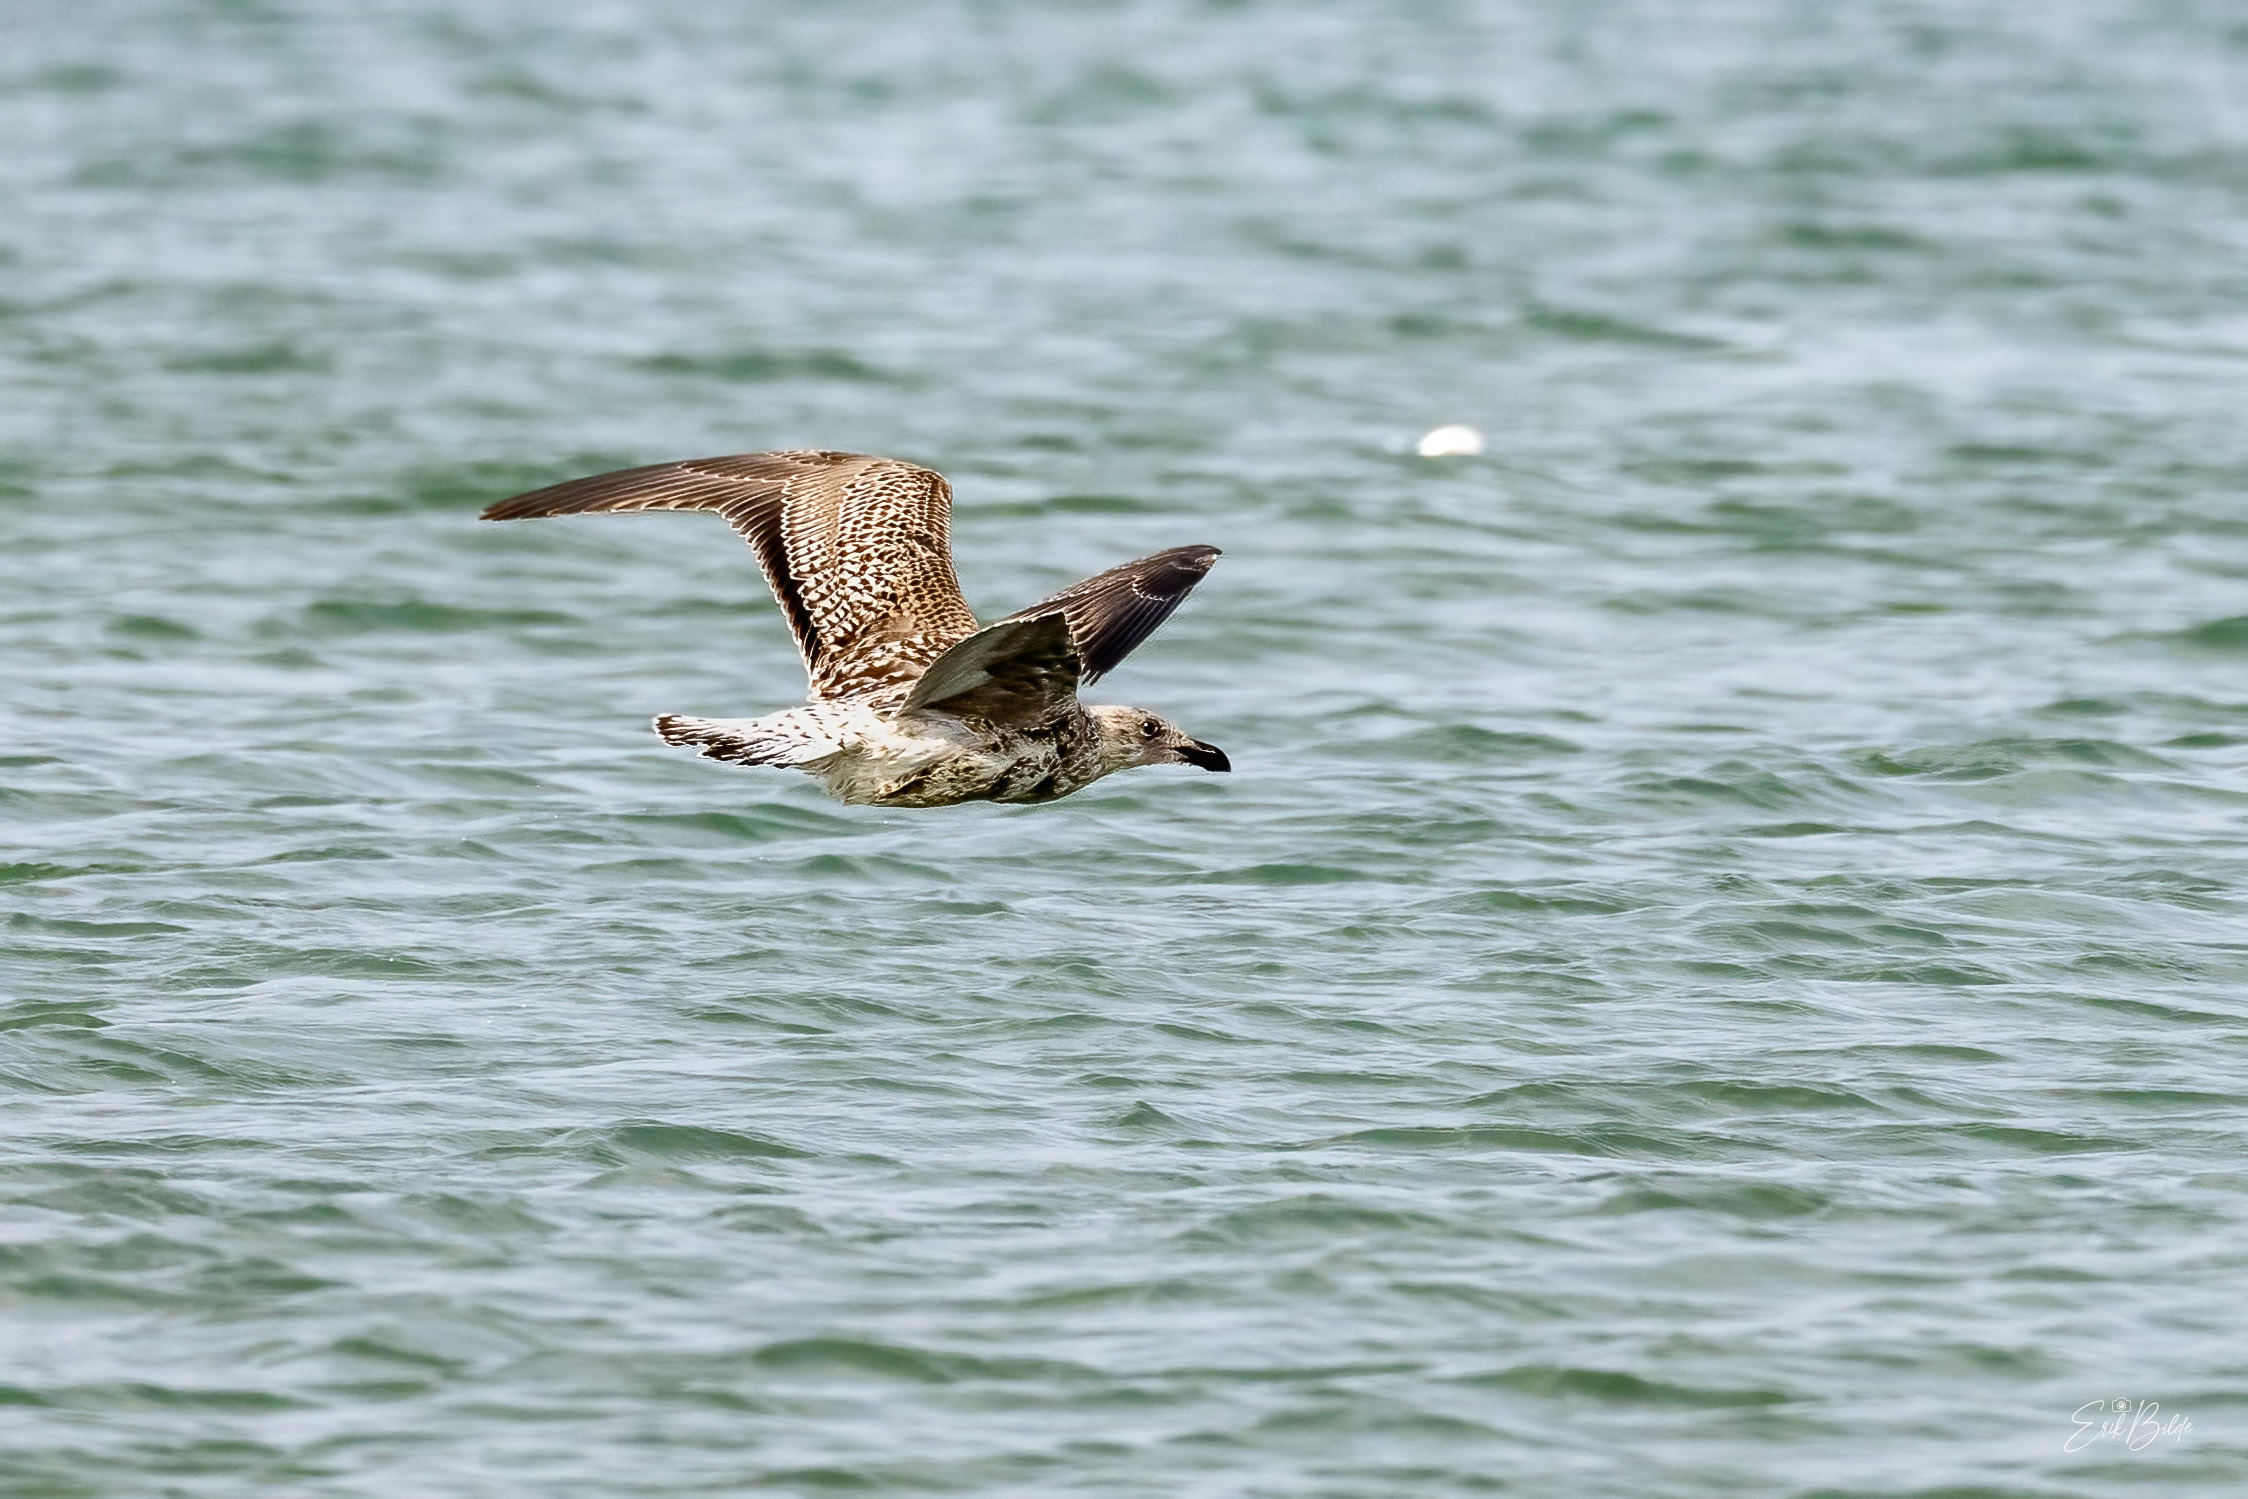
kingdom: Animalia
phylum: Chordata
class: Aves
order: Charadriiformes
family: Laridae
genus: Larus
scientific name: Larus marinus
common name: Svartbag
